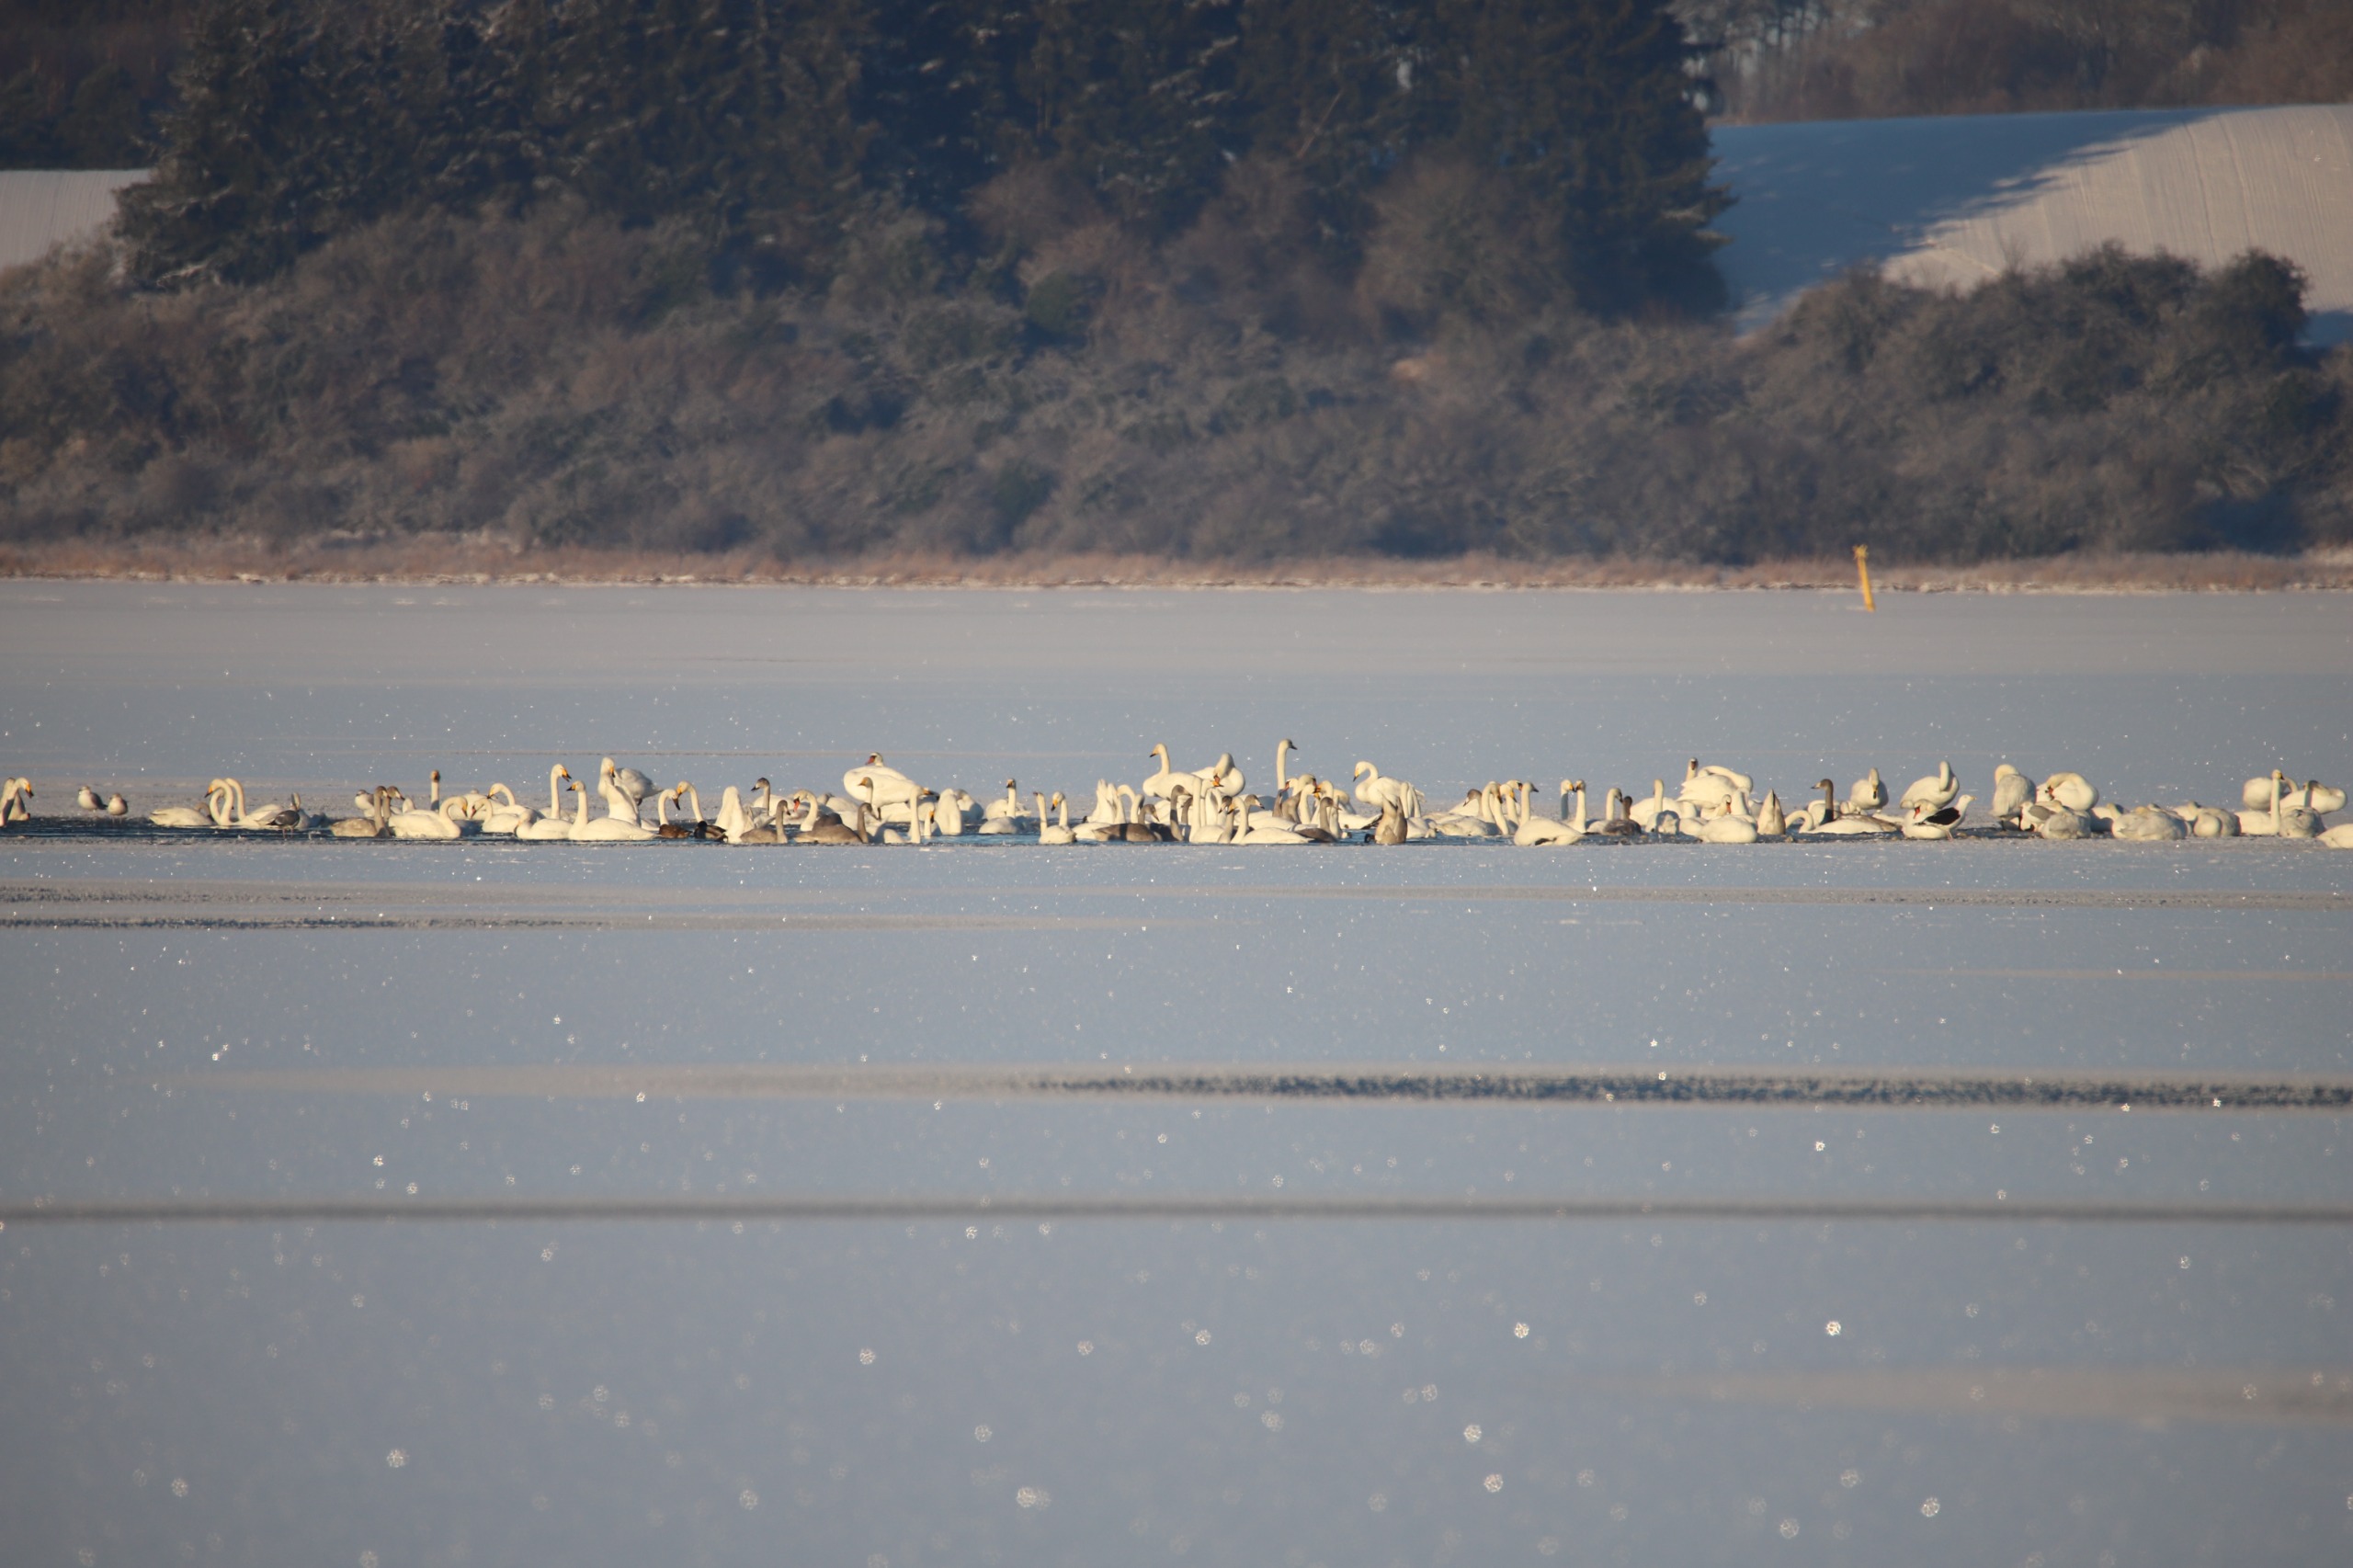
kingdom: Animalia
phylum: Chordata
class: Aves
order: Anseriformes
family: Anatidae
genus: Cygnus
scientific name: Cygnus cygnus
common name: Sangsvane
